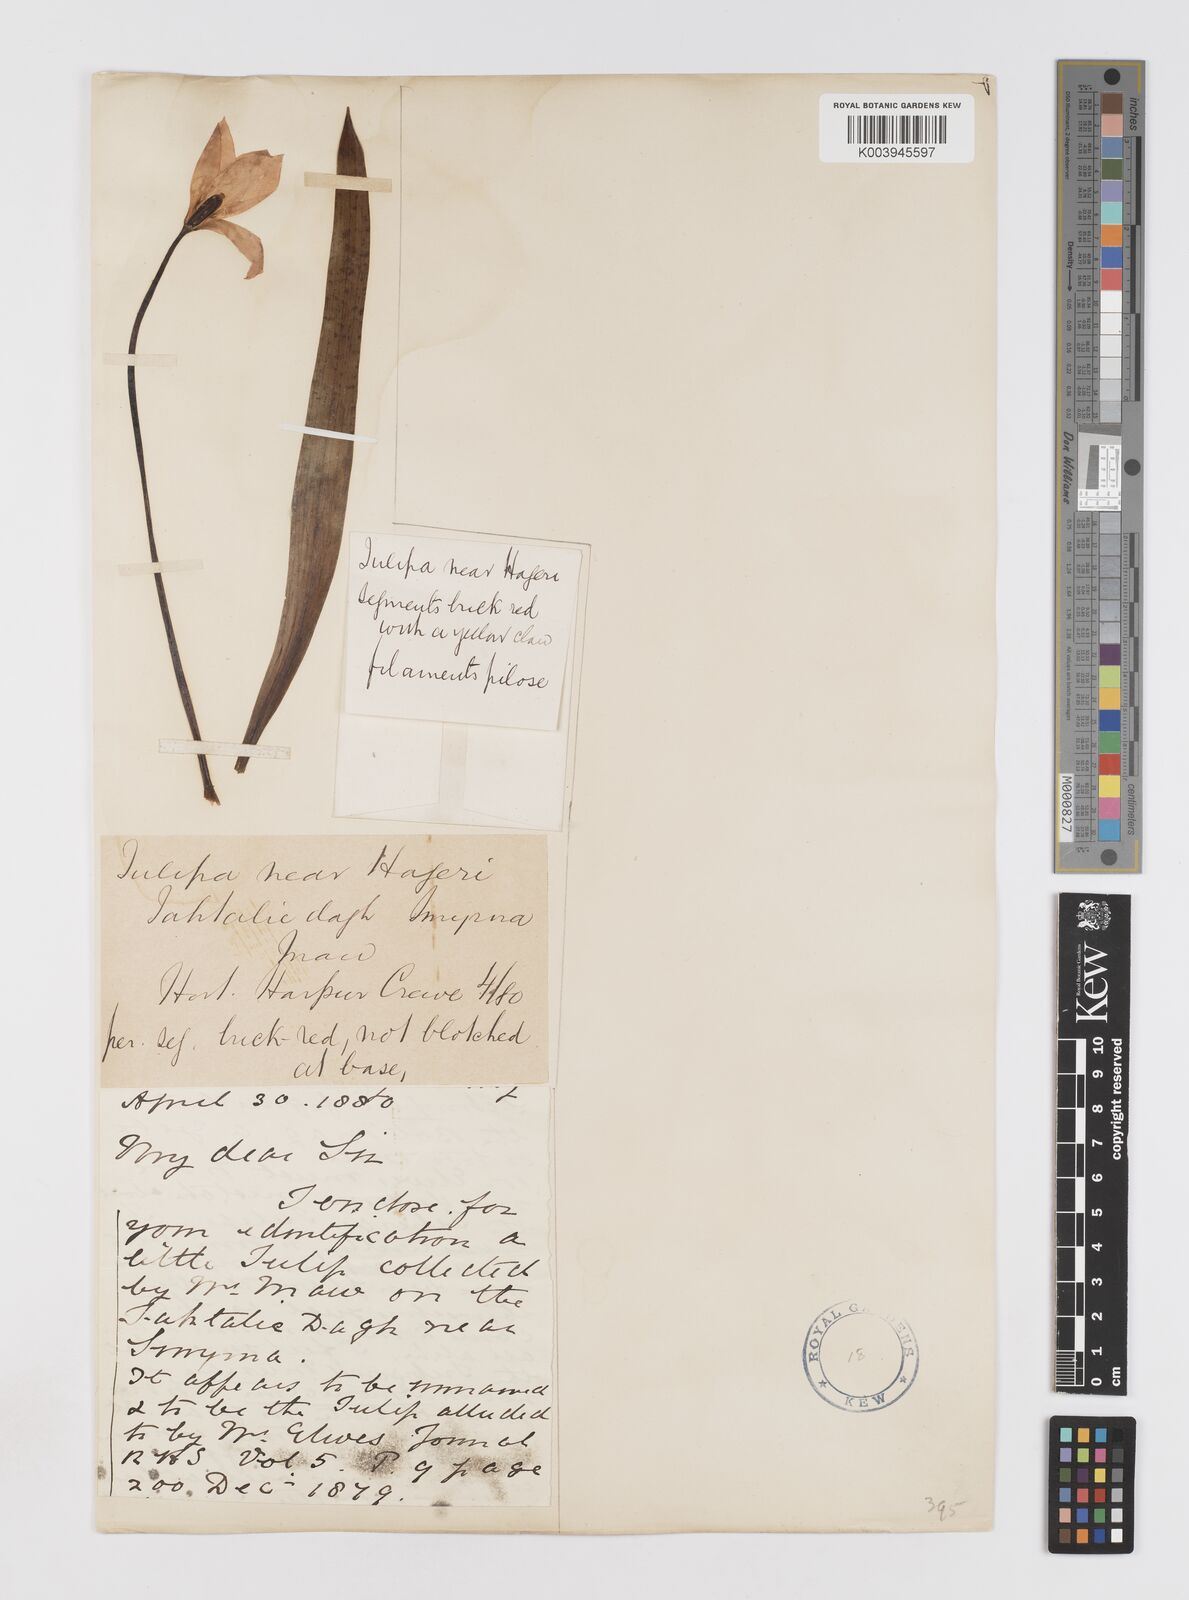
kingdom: Plantae
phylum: Tracheophyta
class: Liliopsida
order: Liliales
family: Liliaceae
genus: Tulipa
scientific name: Tulipa orphanidea
